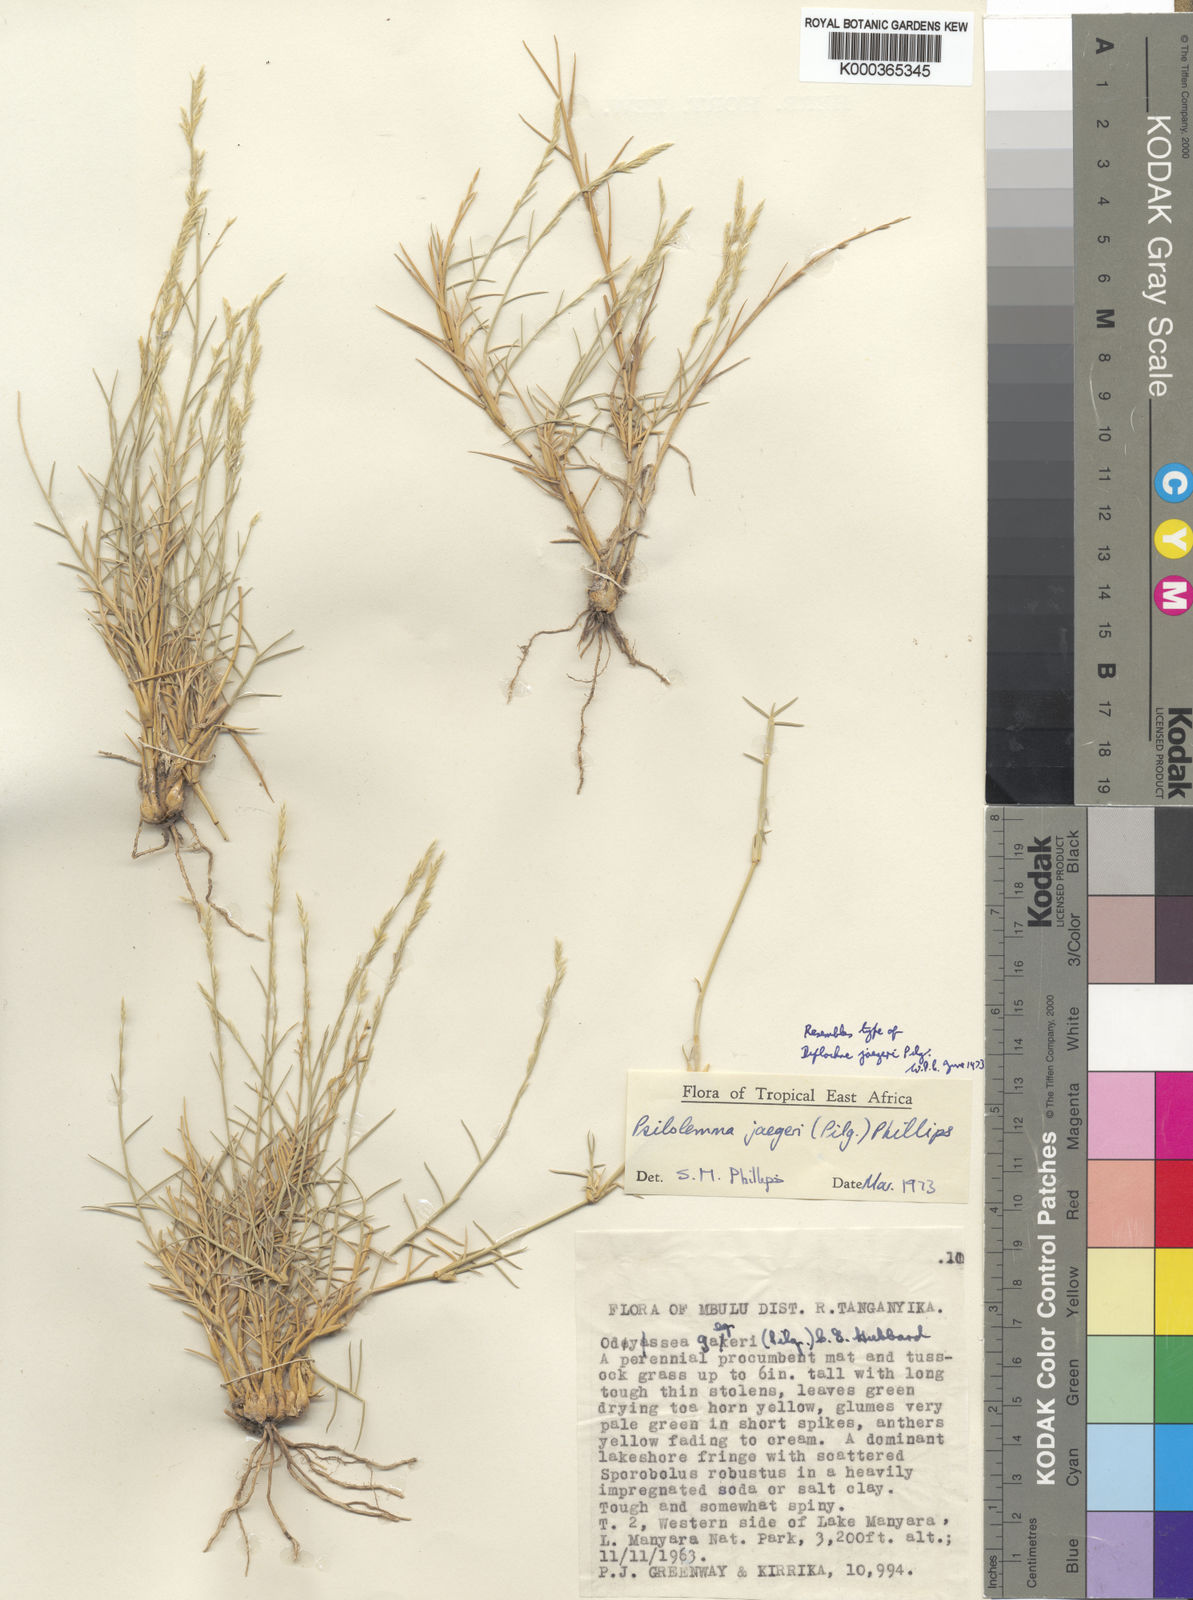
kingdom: Plantae
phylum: Tracheophyta
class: Liliopsida
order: Poales
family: Poaceae
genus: Psilolemma
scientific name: Psilolemma jaegeri
